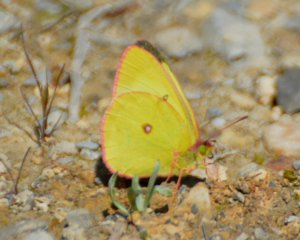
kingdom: Animalia
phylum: Arthropoda
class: Insecta
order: Lepidoptera
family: Pieridae
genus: Colias
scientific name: Colias interior
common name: Pink-edged Sulphur
